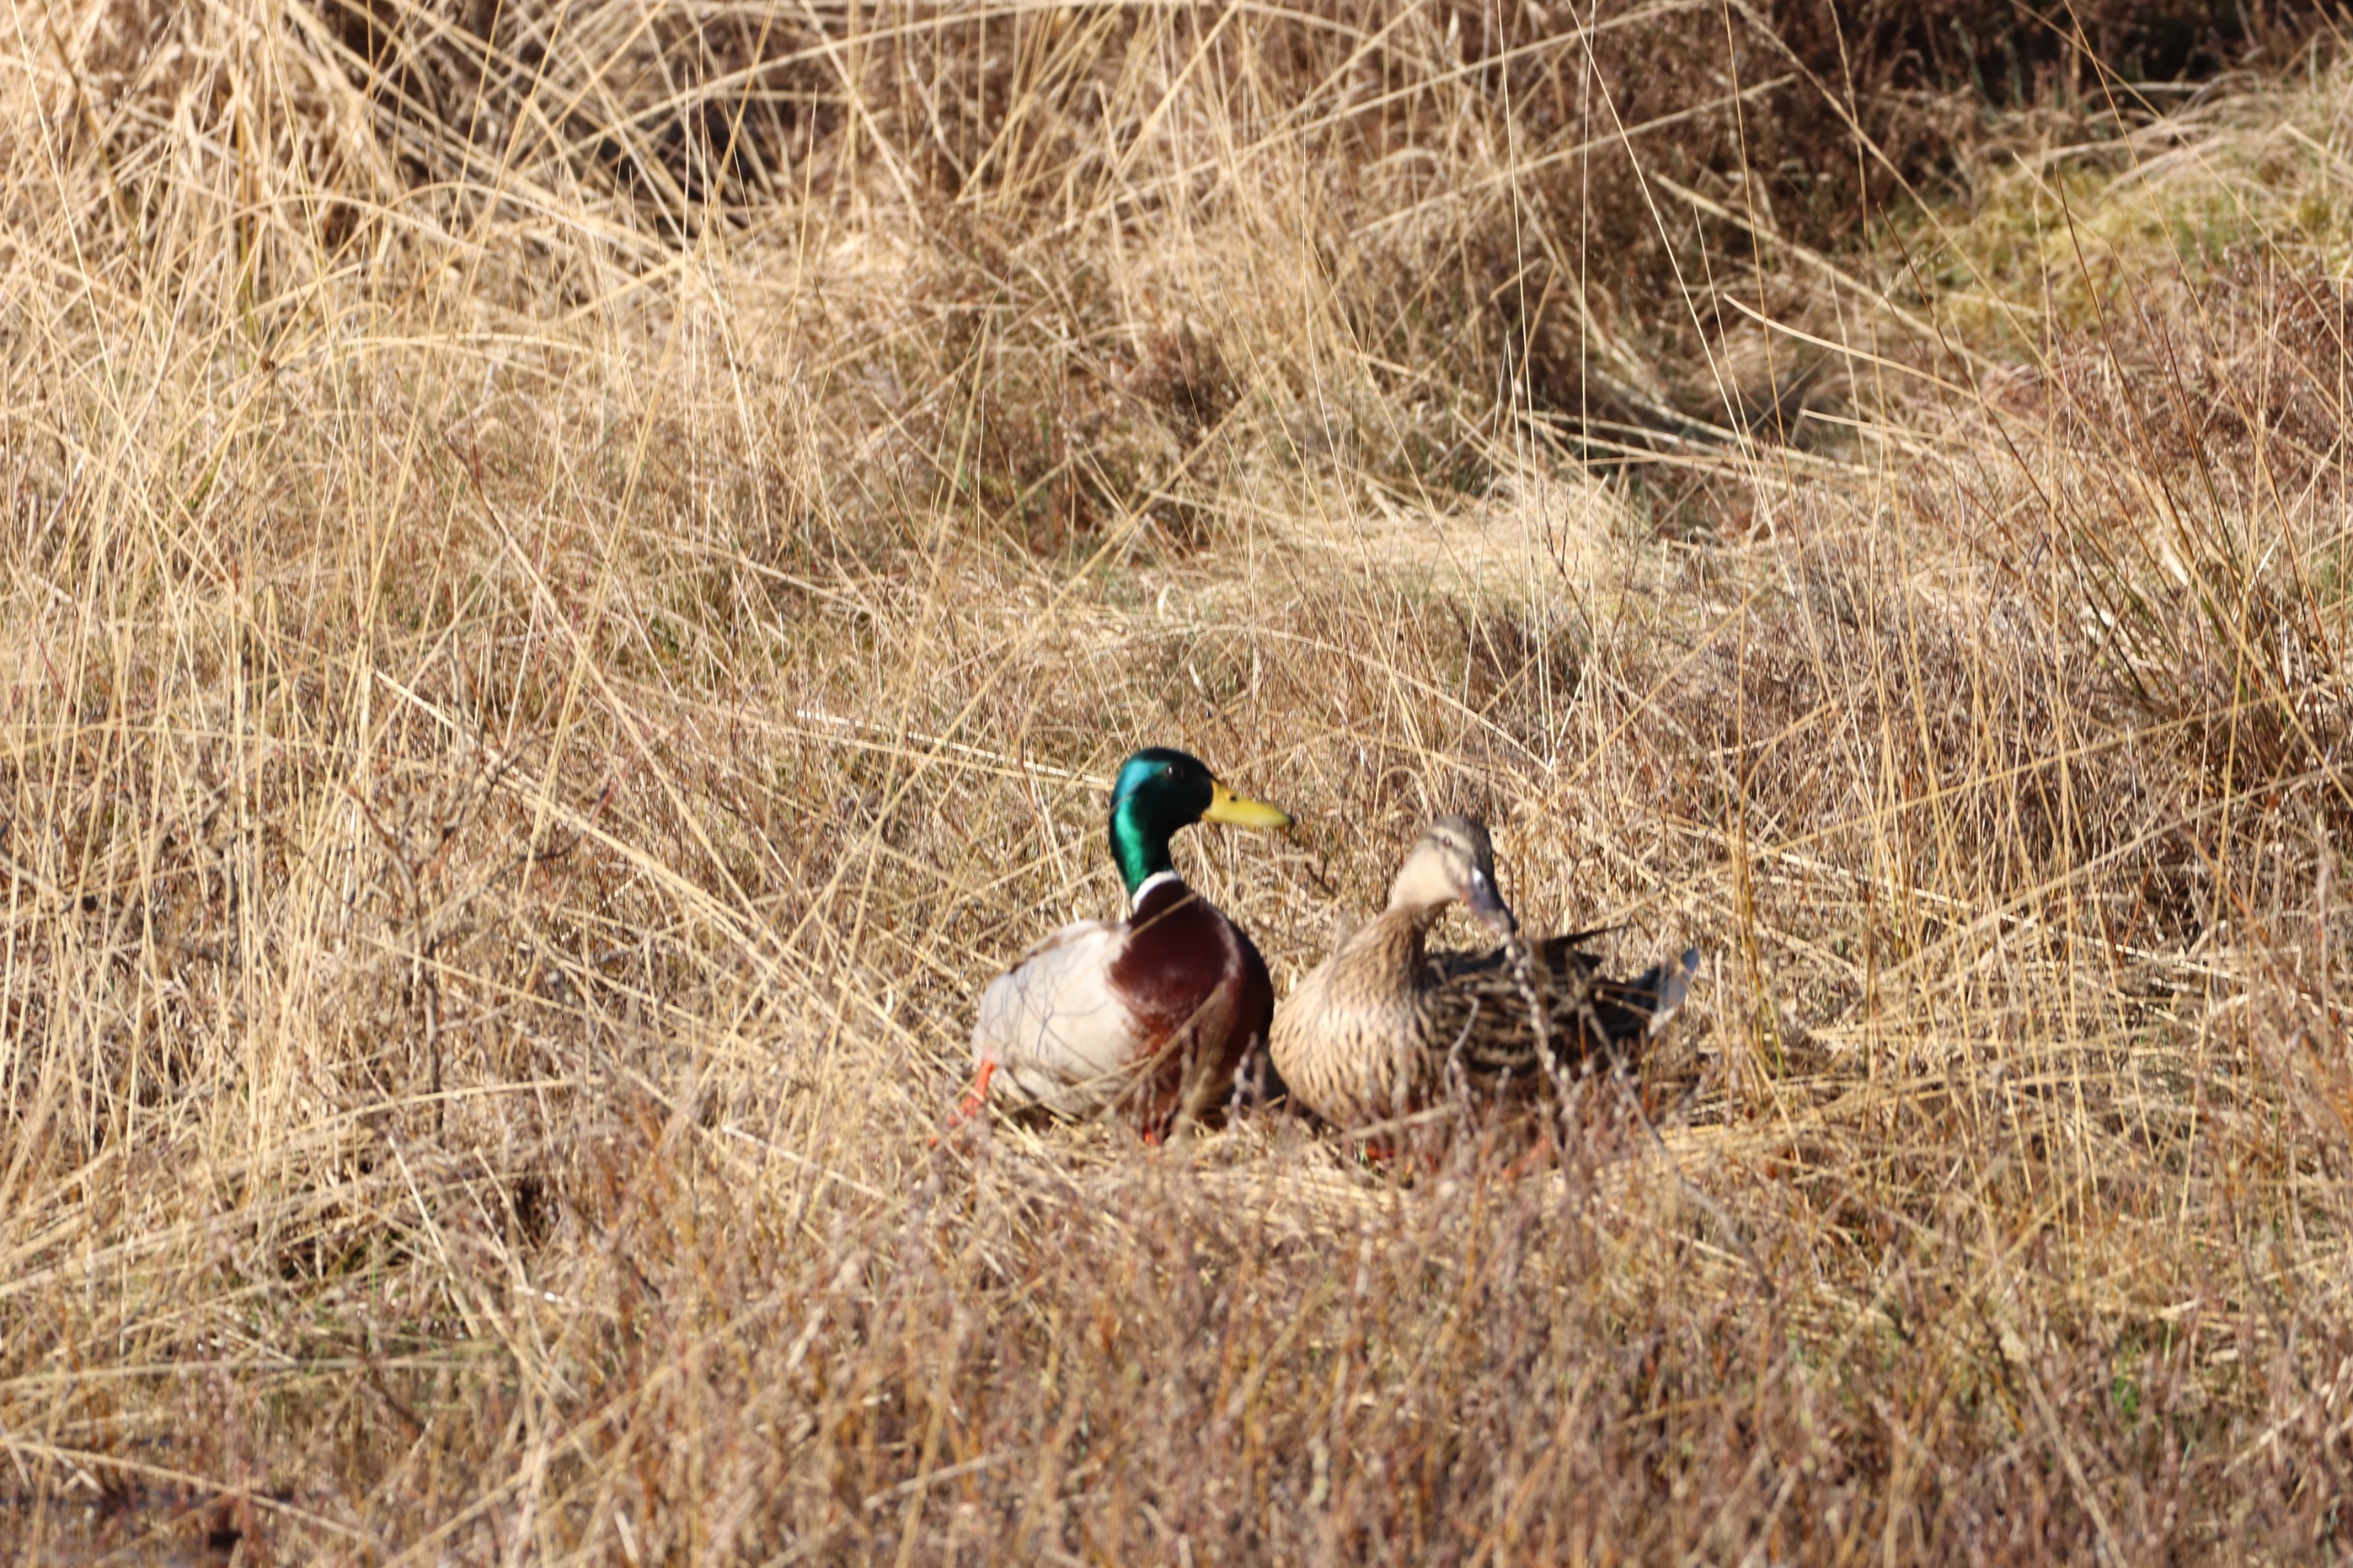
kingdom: Animalia
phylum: Chordata
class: Aves
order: Anseriformes
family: Anatidae
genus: Anas
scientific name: Anas platyrhynchos
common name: Gråand
